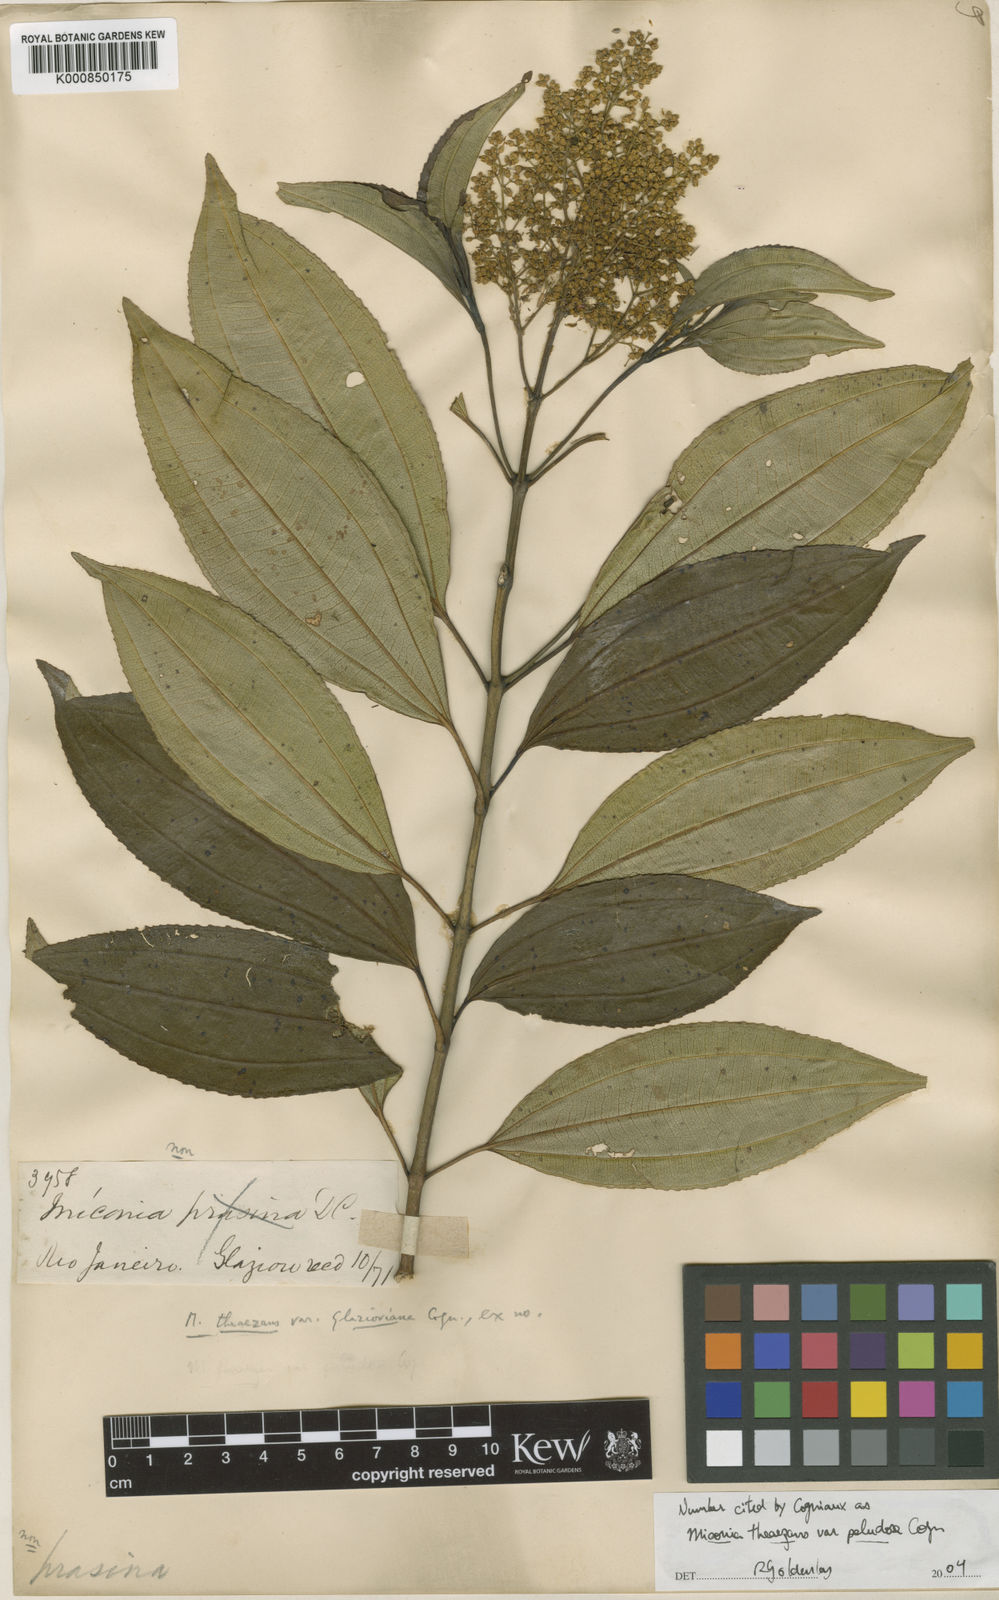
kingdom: Plantae
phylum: Tracheophyta
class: Magnoliopsida
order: Myrtales
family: Melastomataceae
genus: Miconia
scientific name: Miconia
